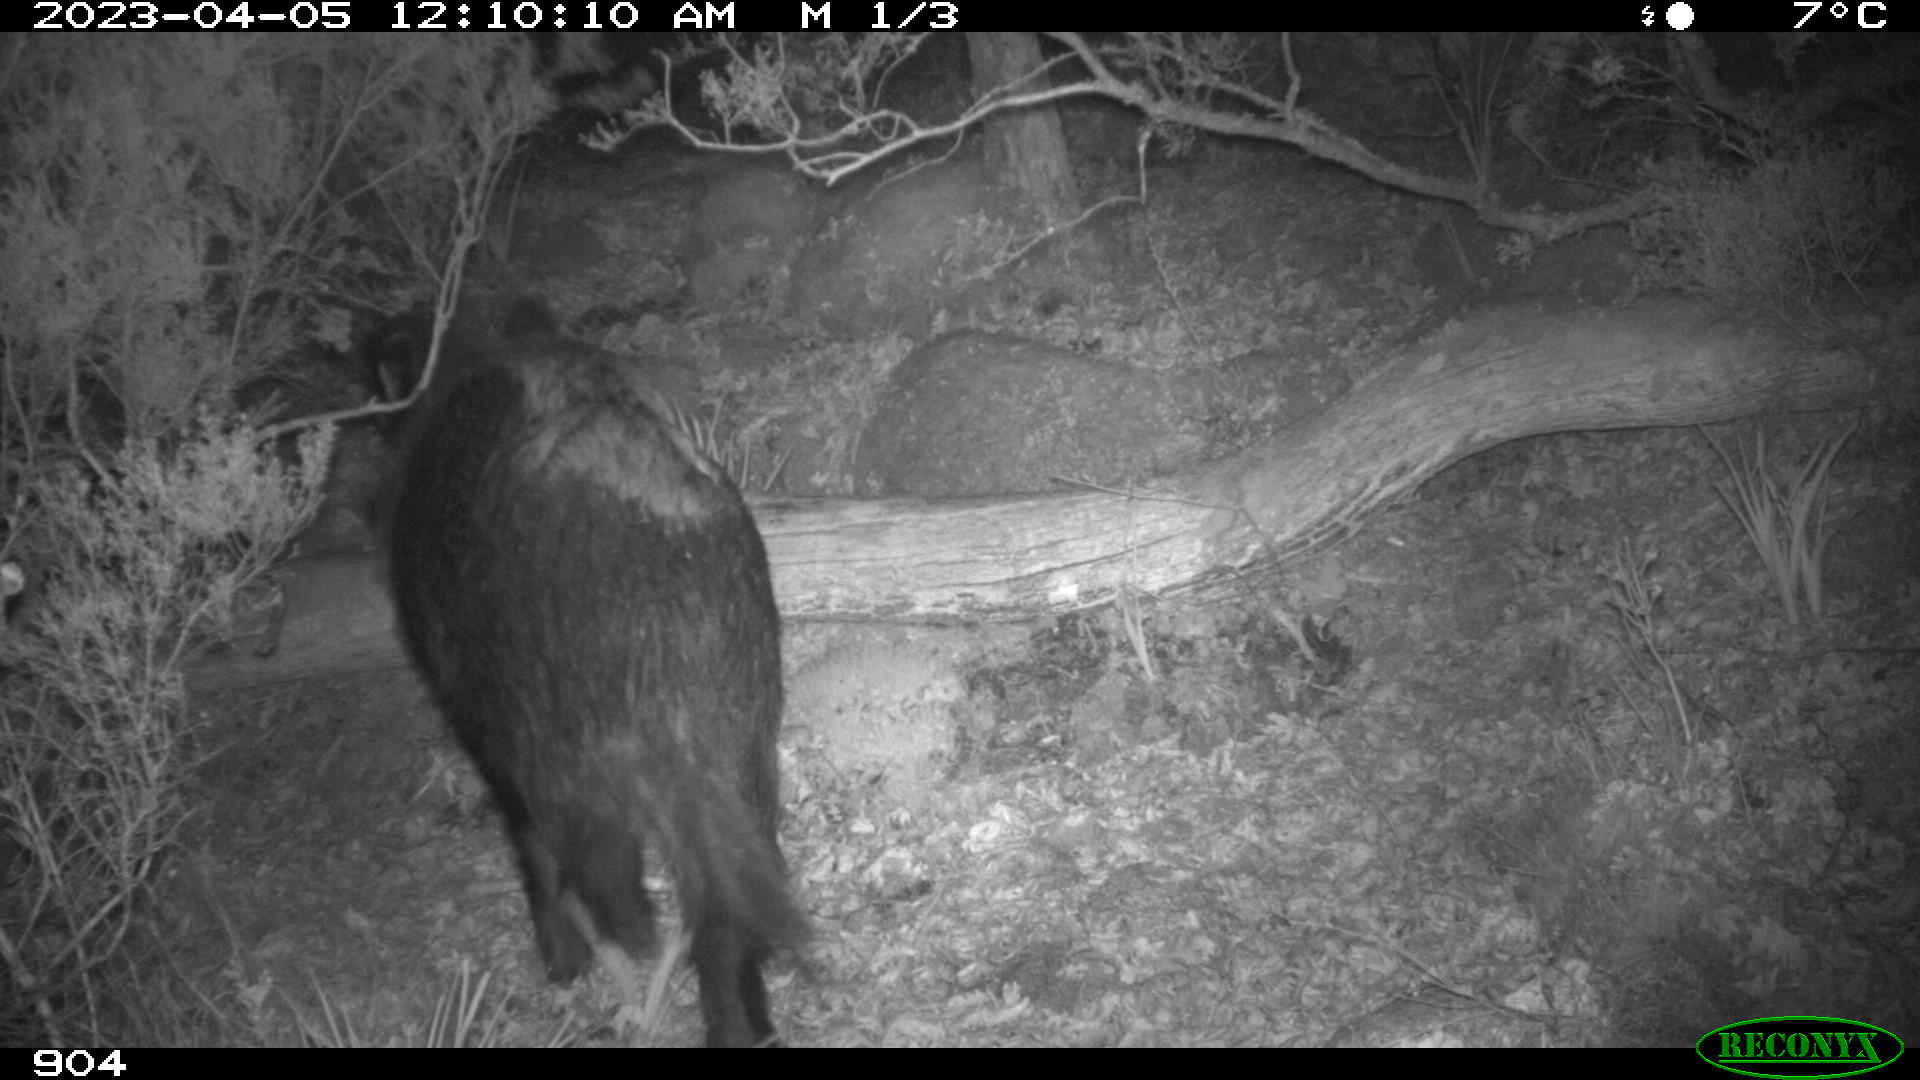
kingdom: Animalia
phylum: Chordata
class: Mammalia
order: Artiodactyla
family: Suidae
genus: Sus
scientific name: Sus scrofa
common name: Wild boar
